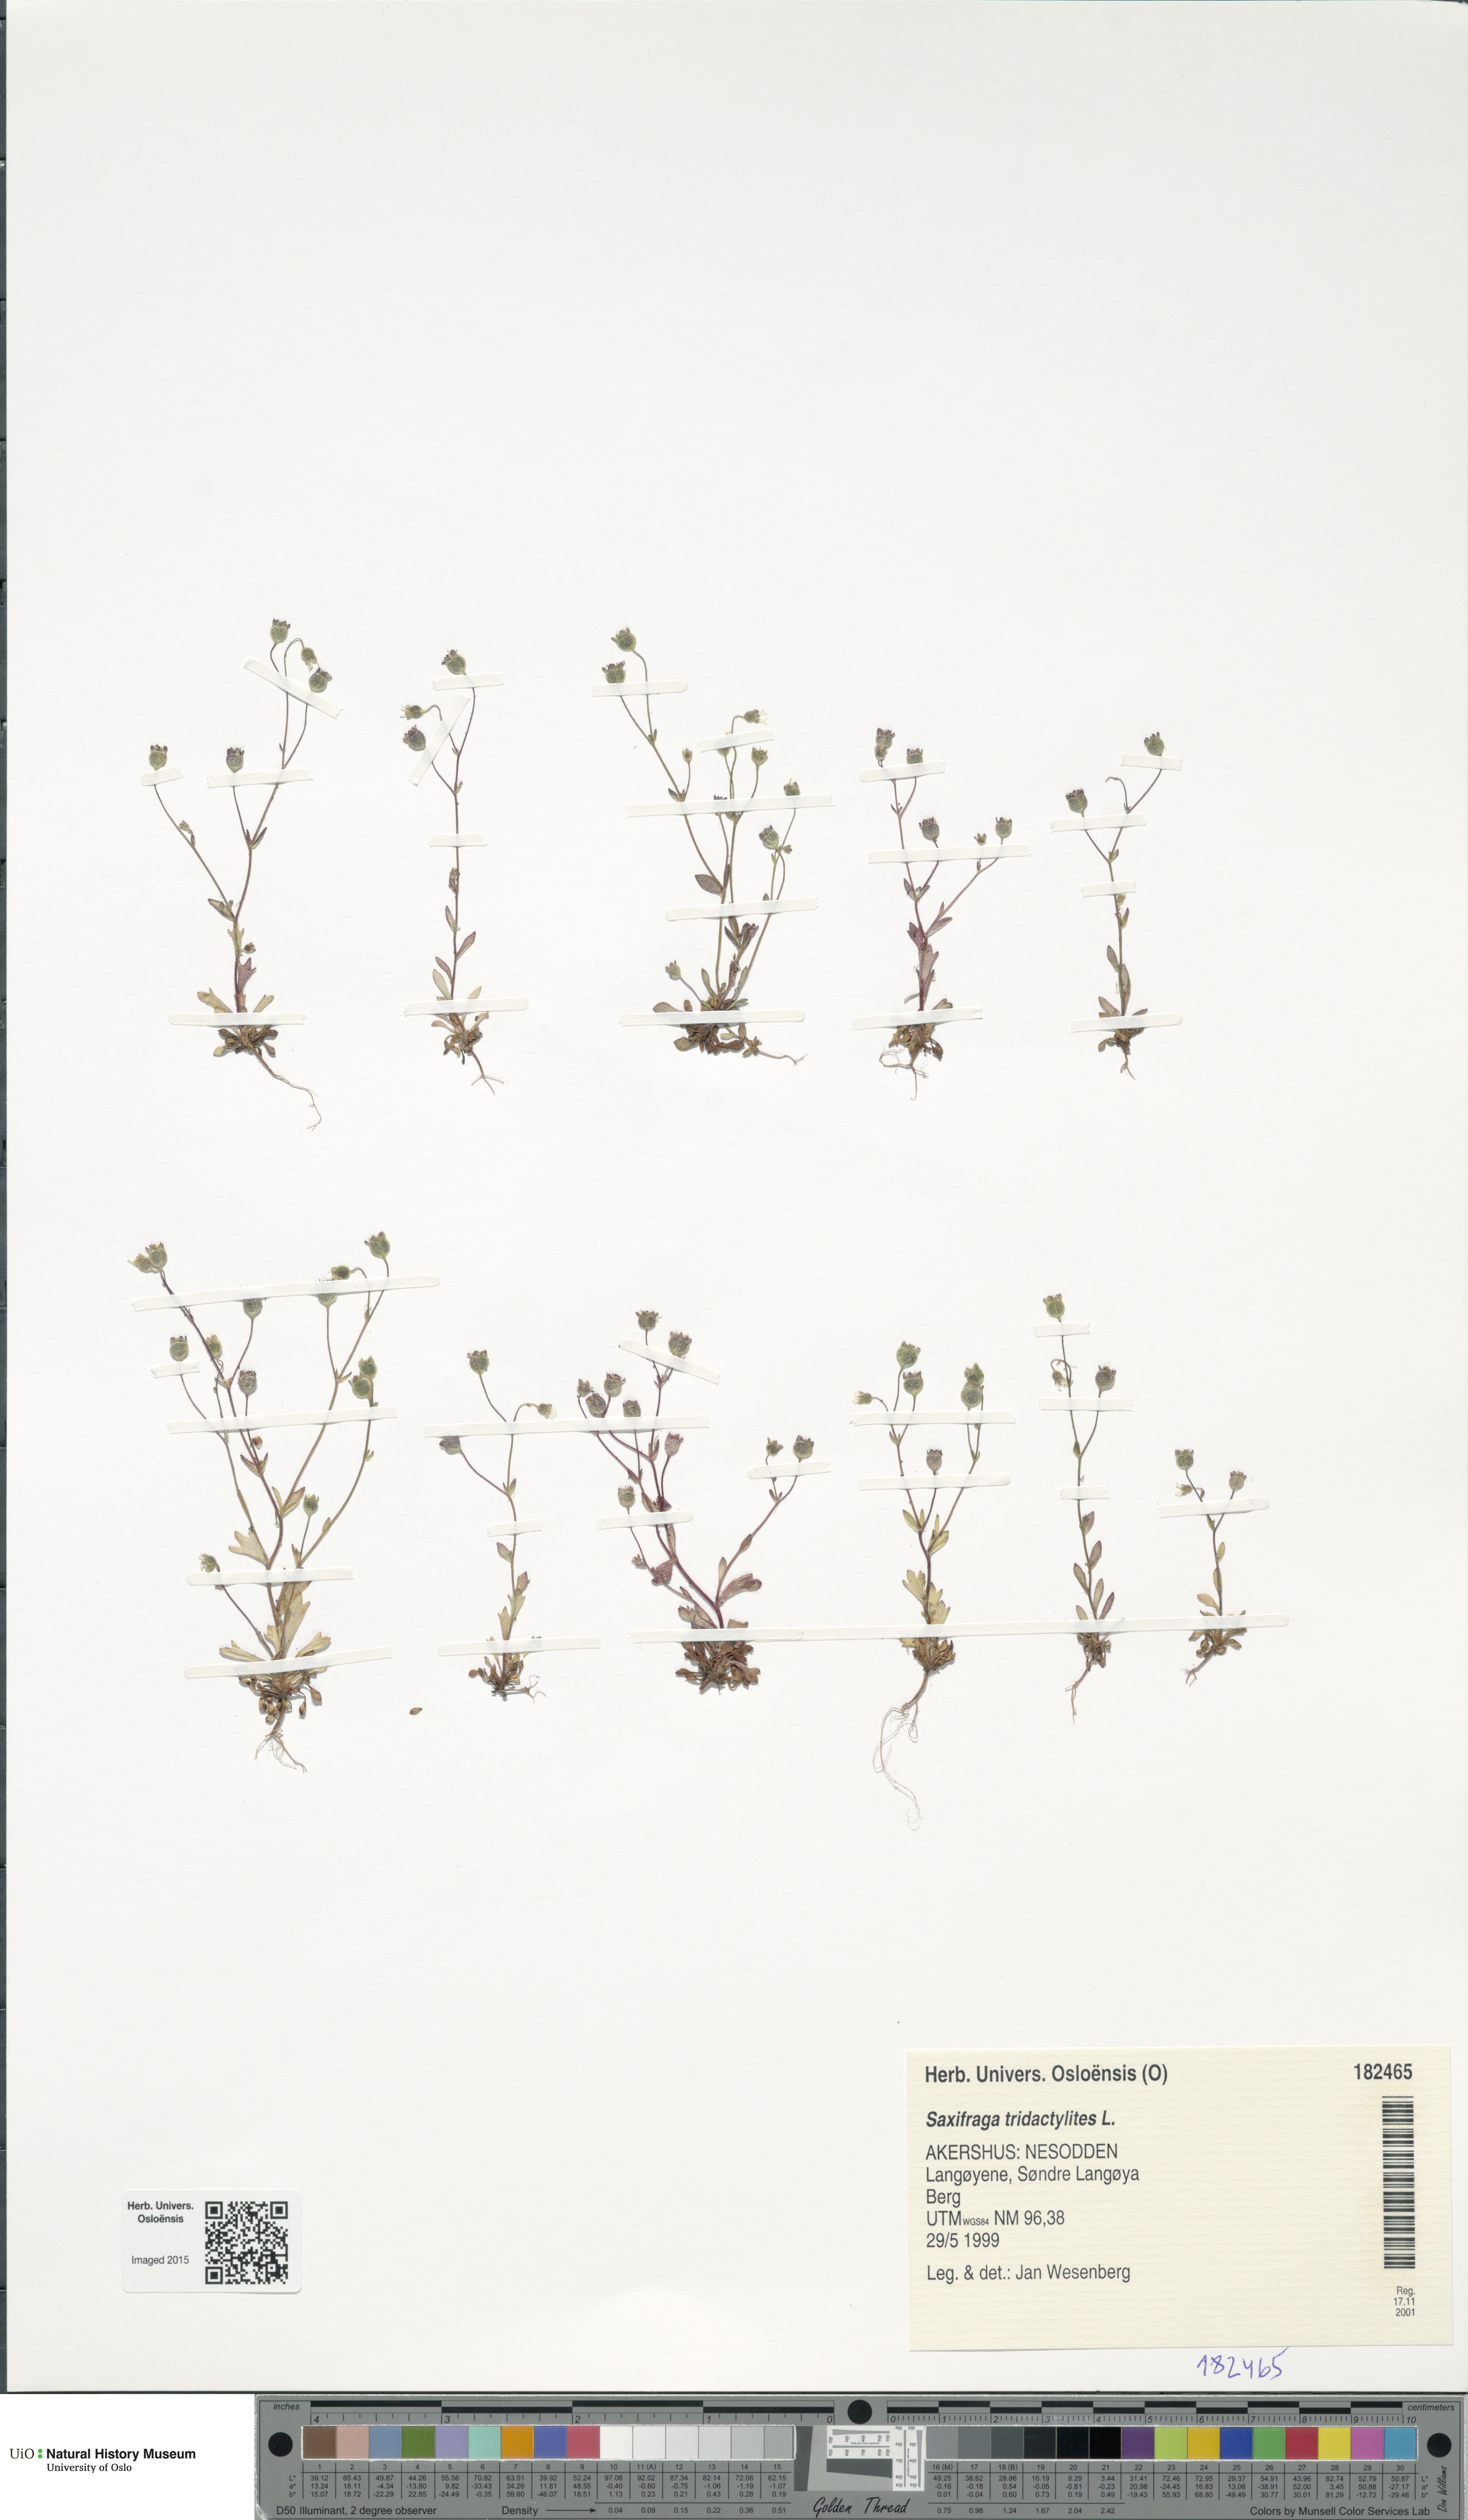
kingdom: Plantae
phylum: Tracheophyta
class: Magnoliopsida
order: Saxifragales
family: Saxifragaceae
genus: Saxifraga
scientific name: Saxifraga tridactylites
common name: Rue-leaved saxifrage
